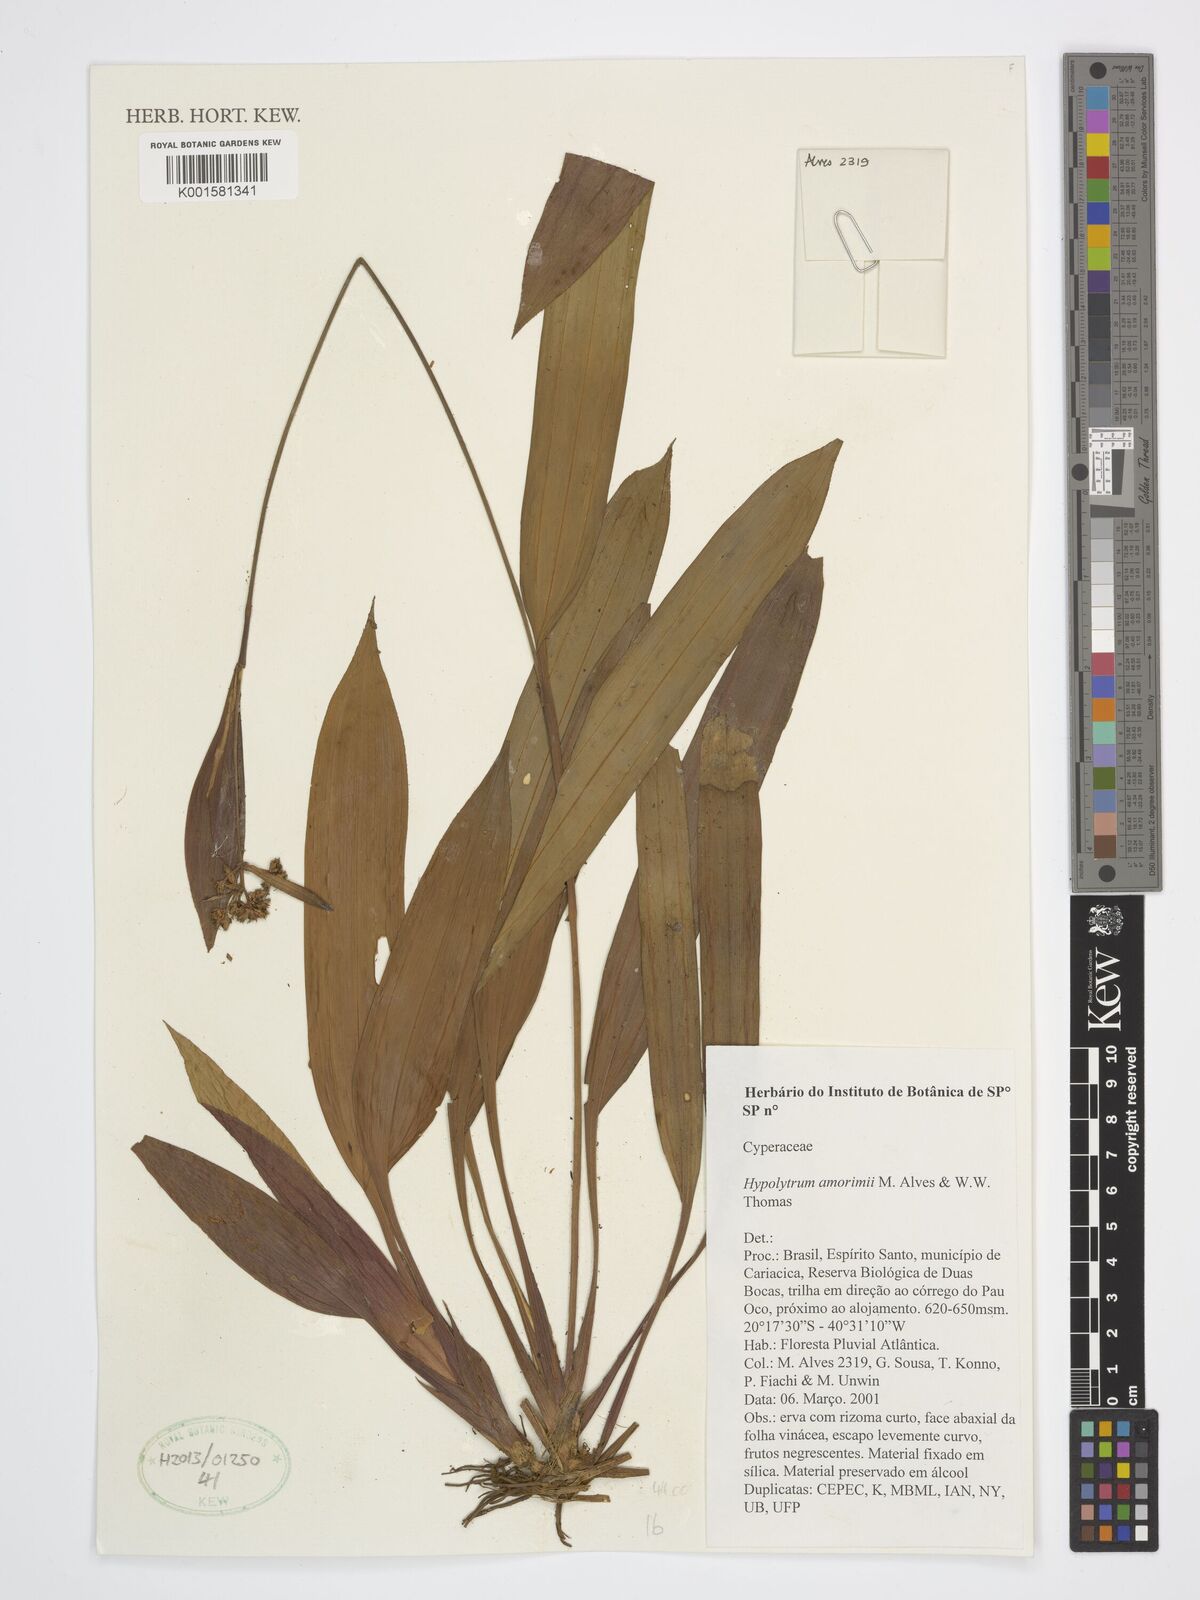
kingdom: Plantae
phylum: Tracheophyta
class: Liliopsida
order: Poales
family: Cyperaceae
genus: Hypolytrum
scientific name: Hypolytrum amorimii
